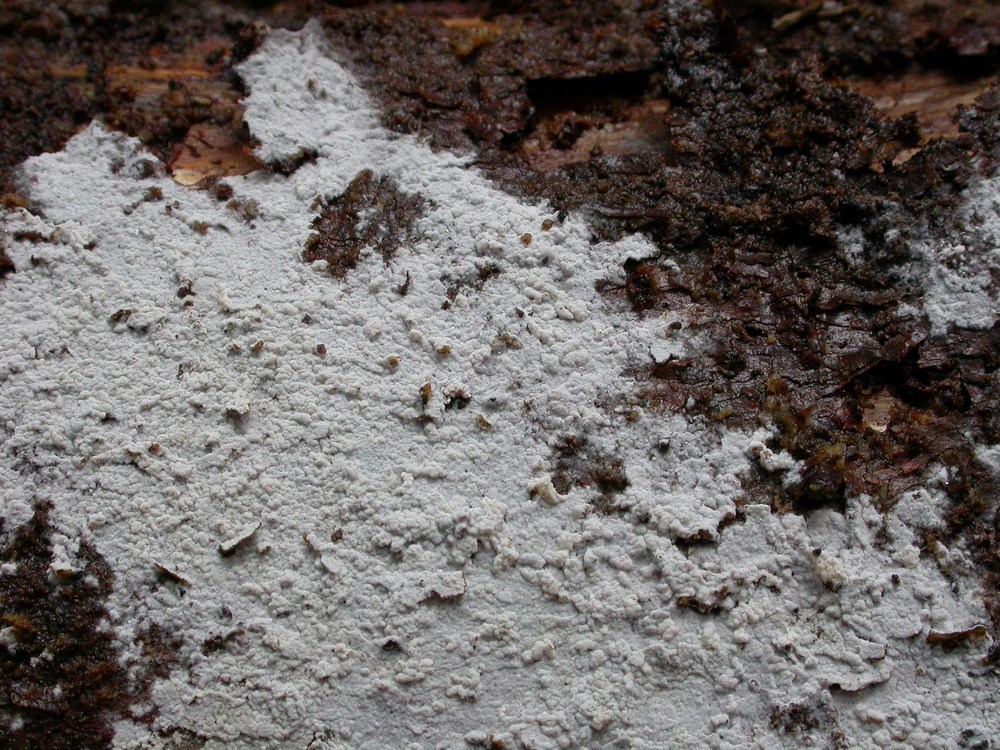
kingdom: Fungi
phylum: Basidiomycota
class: Agaricomycetes
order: Atheliales
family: Atheliaceae
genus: Athelia
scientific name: Athelia epiphylla
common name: almindelig barkhinde
